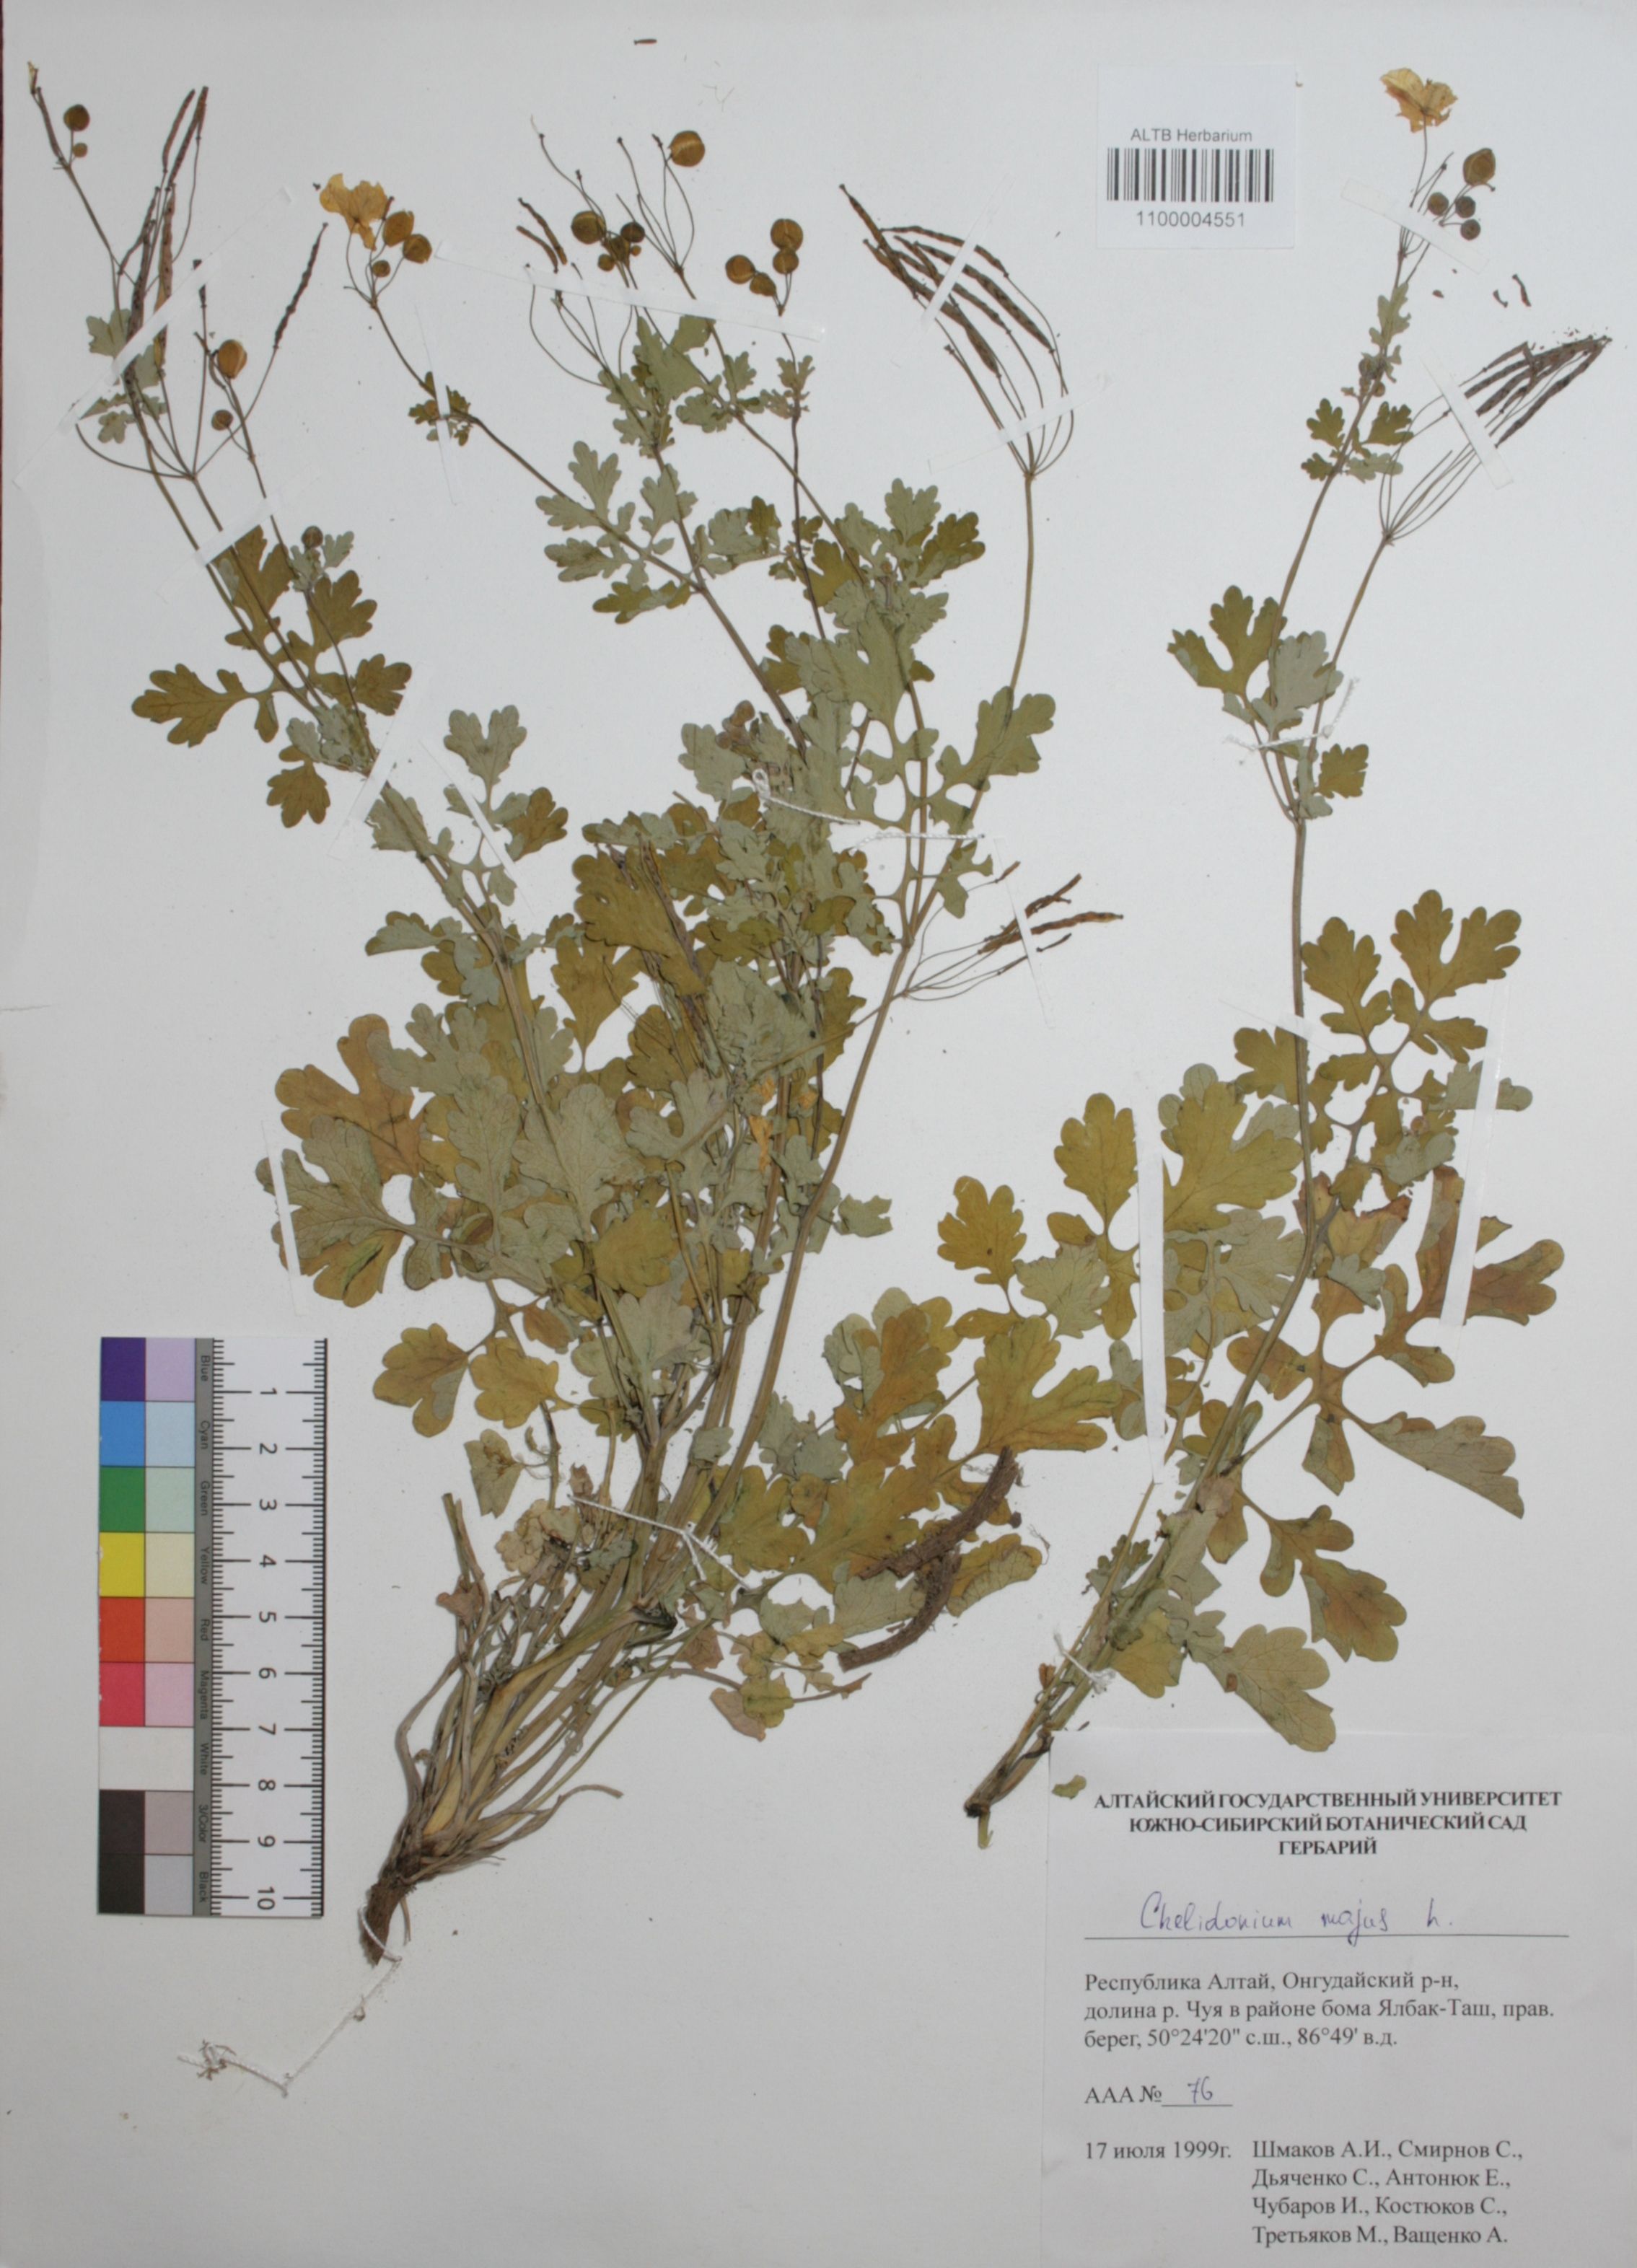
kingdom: Plantae
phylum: Tracheophyta
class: Magnoliopsida
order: Ranunculales
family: Papaveraceae
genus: Chelidonium
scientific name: Chelidonium majus
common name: Greater celandine
